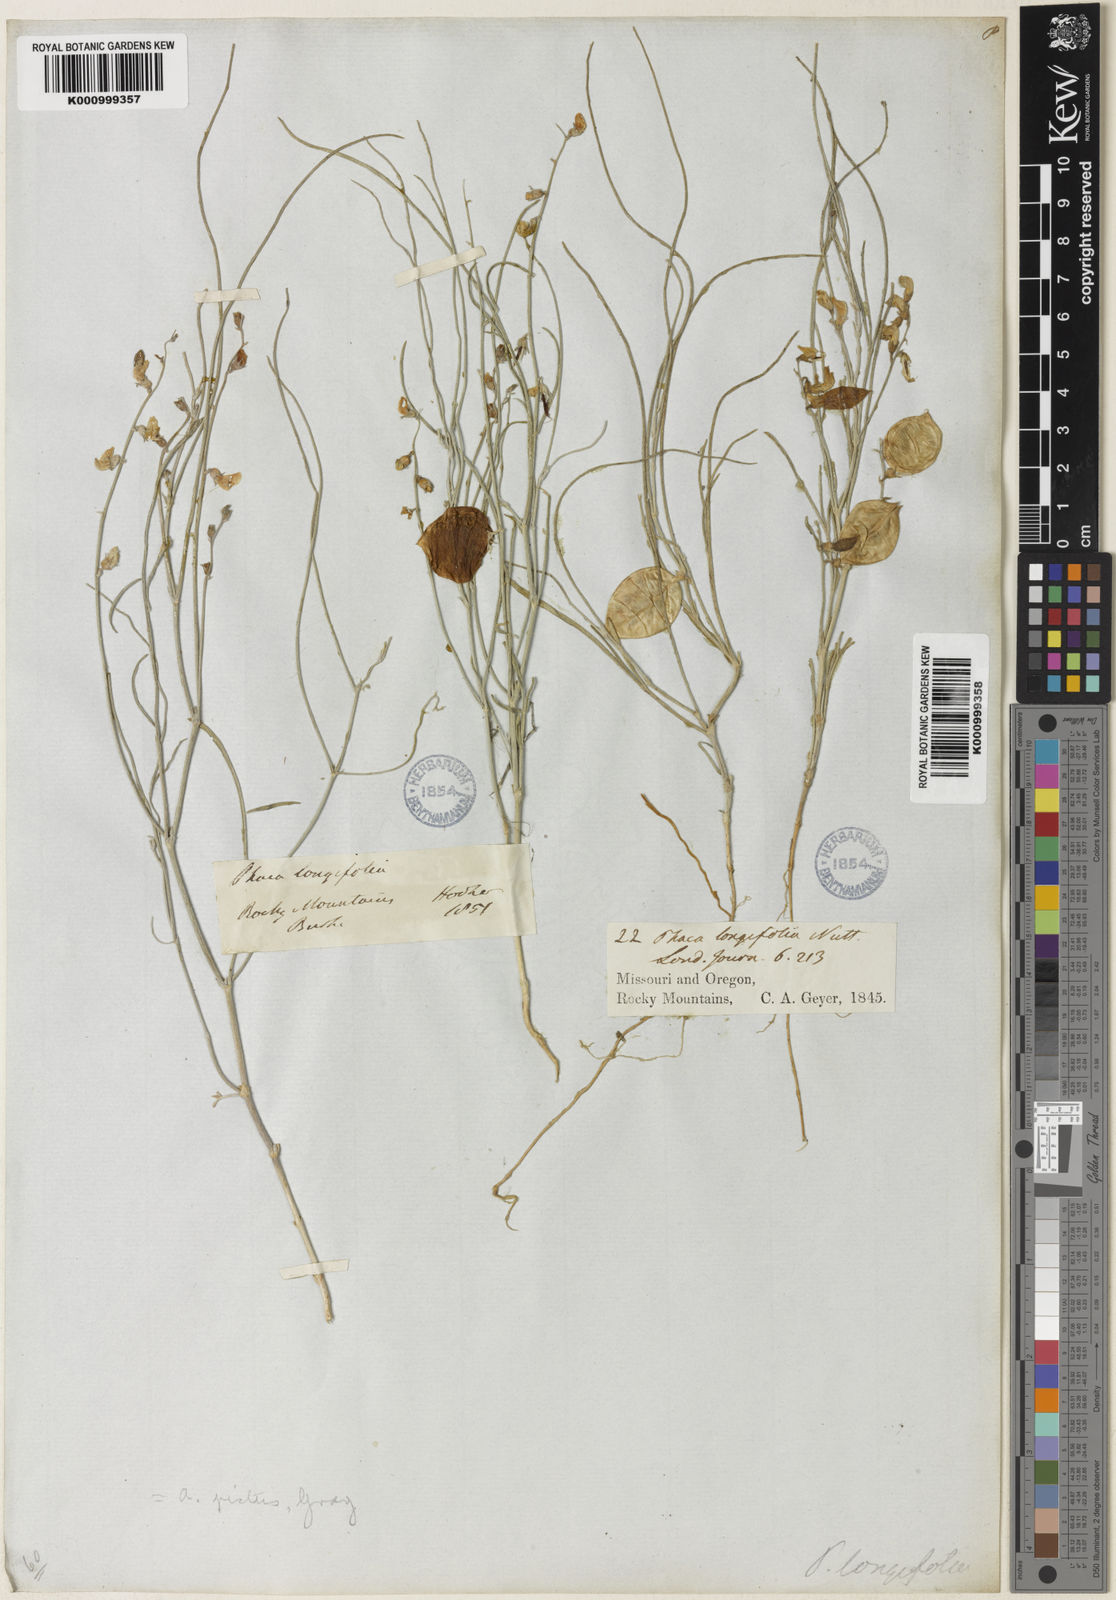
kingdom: Plantae
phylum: Tracheophyta
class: Magnoliopsida
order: Fabales
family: Fabaceae
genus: Astragalus
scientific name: Astragalus ceramicus
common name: Painted milk-vetch
